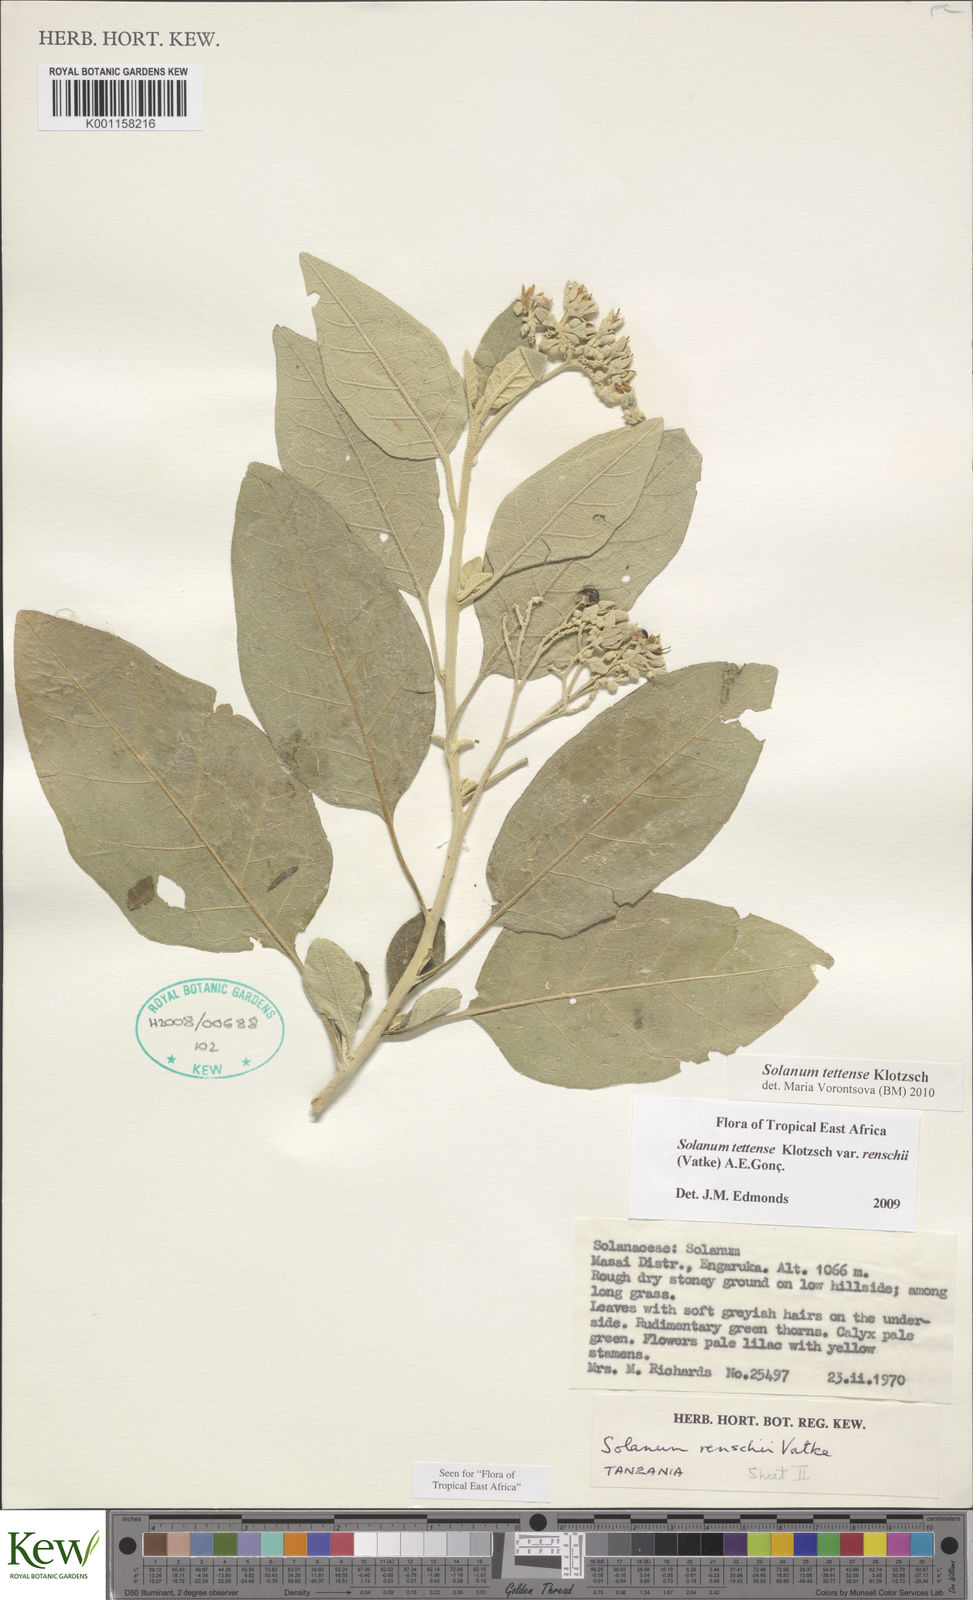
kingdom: Plantae
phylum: Tracheophyta
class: Magnoliopsida
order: Solanales
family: Solanaceae
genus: Solanum
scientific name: Solanum tettense
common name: Mozambique bitter apple
